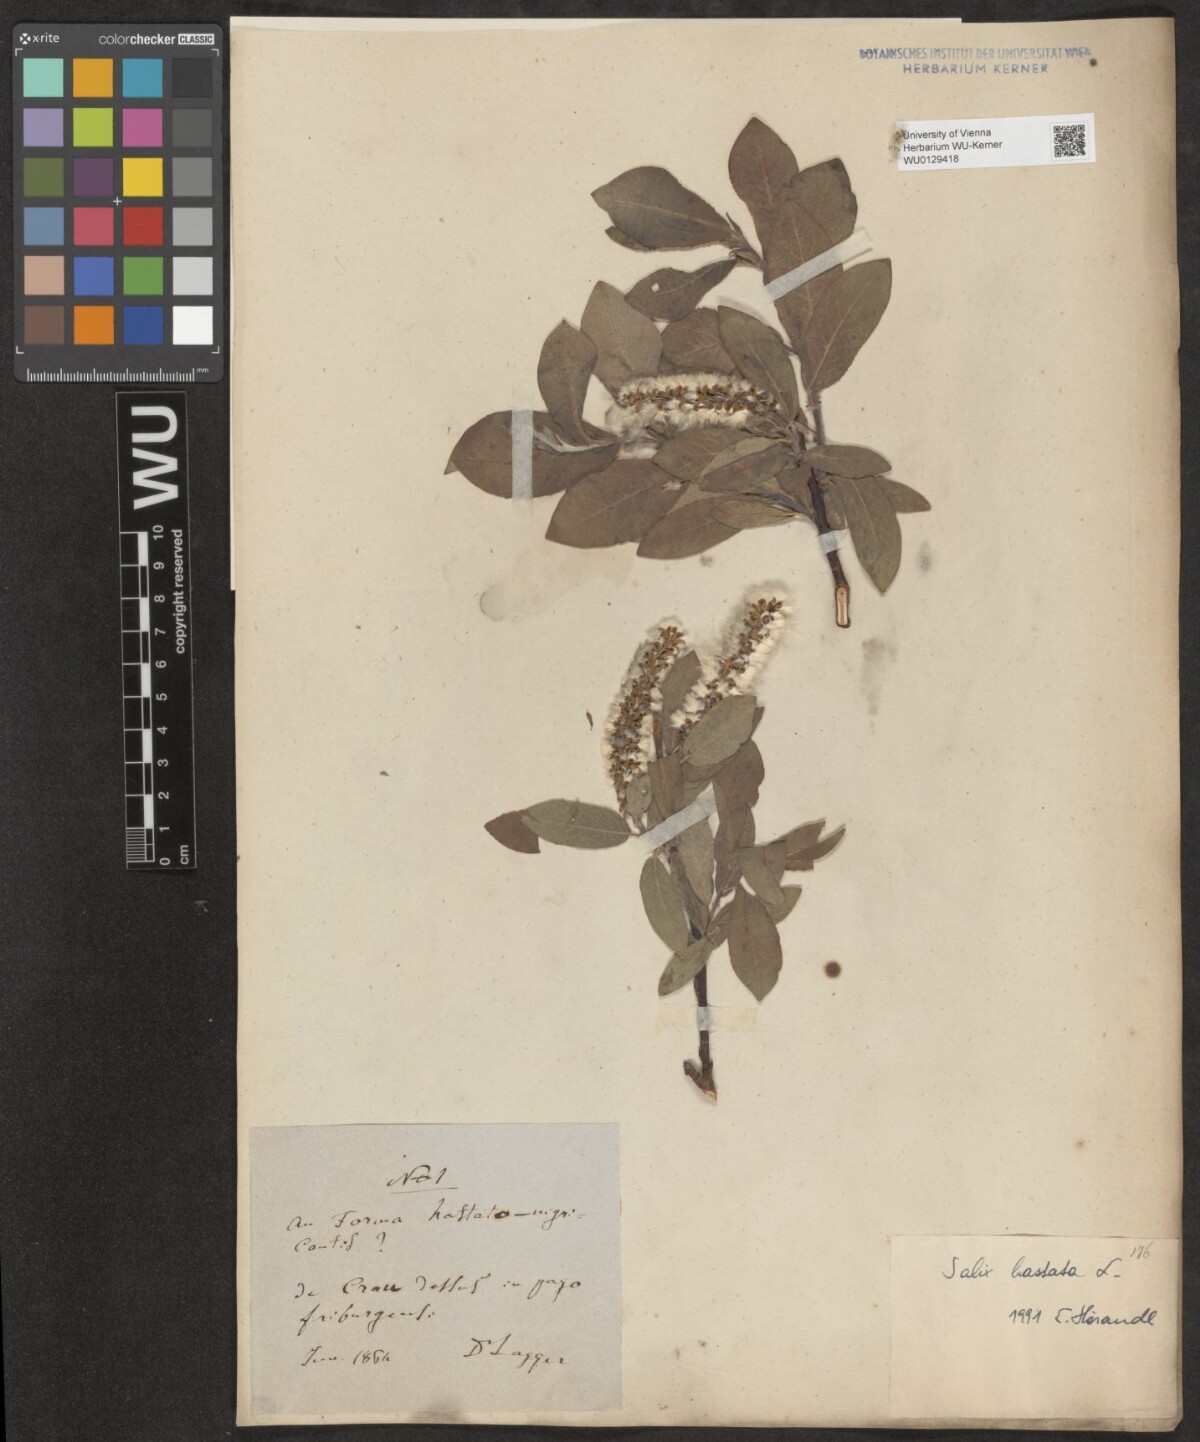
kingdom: Plantae
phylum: Tracheophyta
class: Magnoliopsida
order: Malpighiales
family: Salicaceae
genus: Salix
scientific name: Salix hastata
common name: Halberd willow
